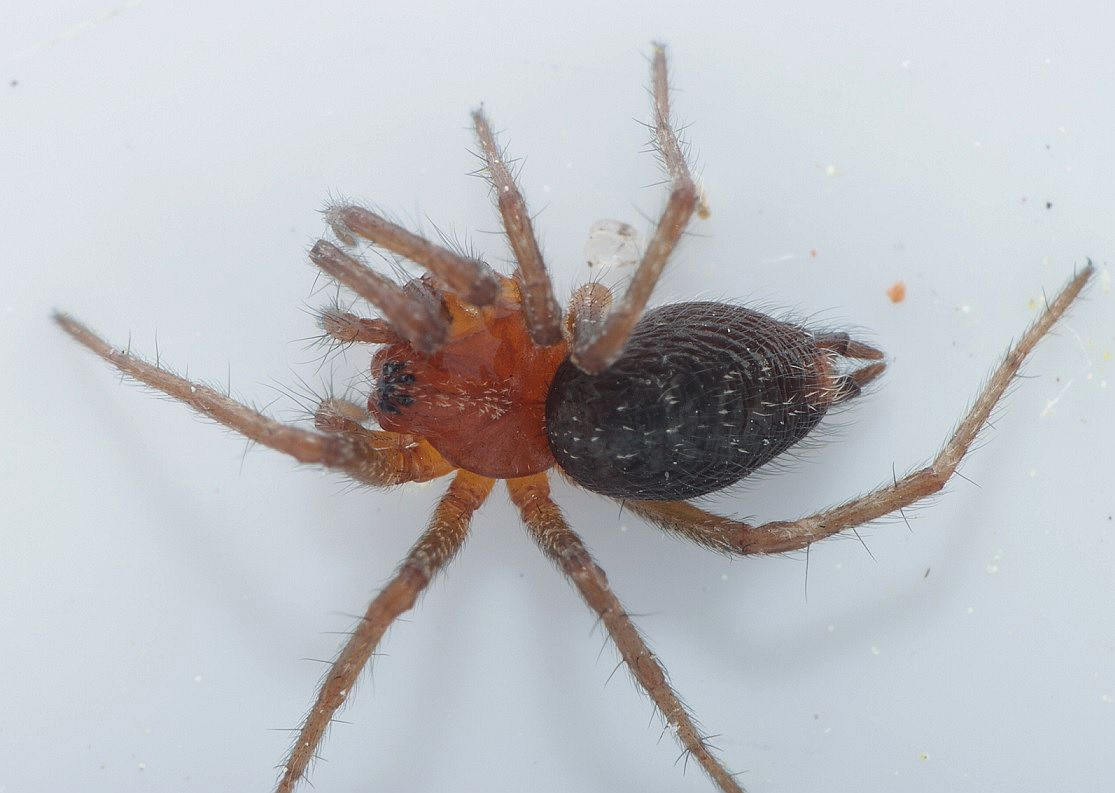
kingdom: Animalia
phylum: Arthropoda
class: Arachnida
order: Araneae
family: Agelenidae
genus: Agelena
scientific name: Agelena labyrinthica
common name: Labyrintedderkop
